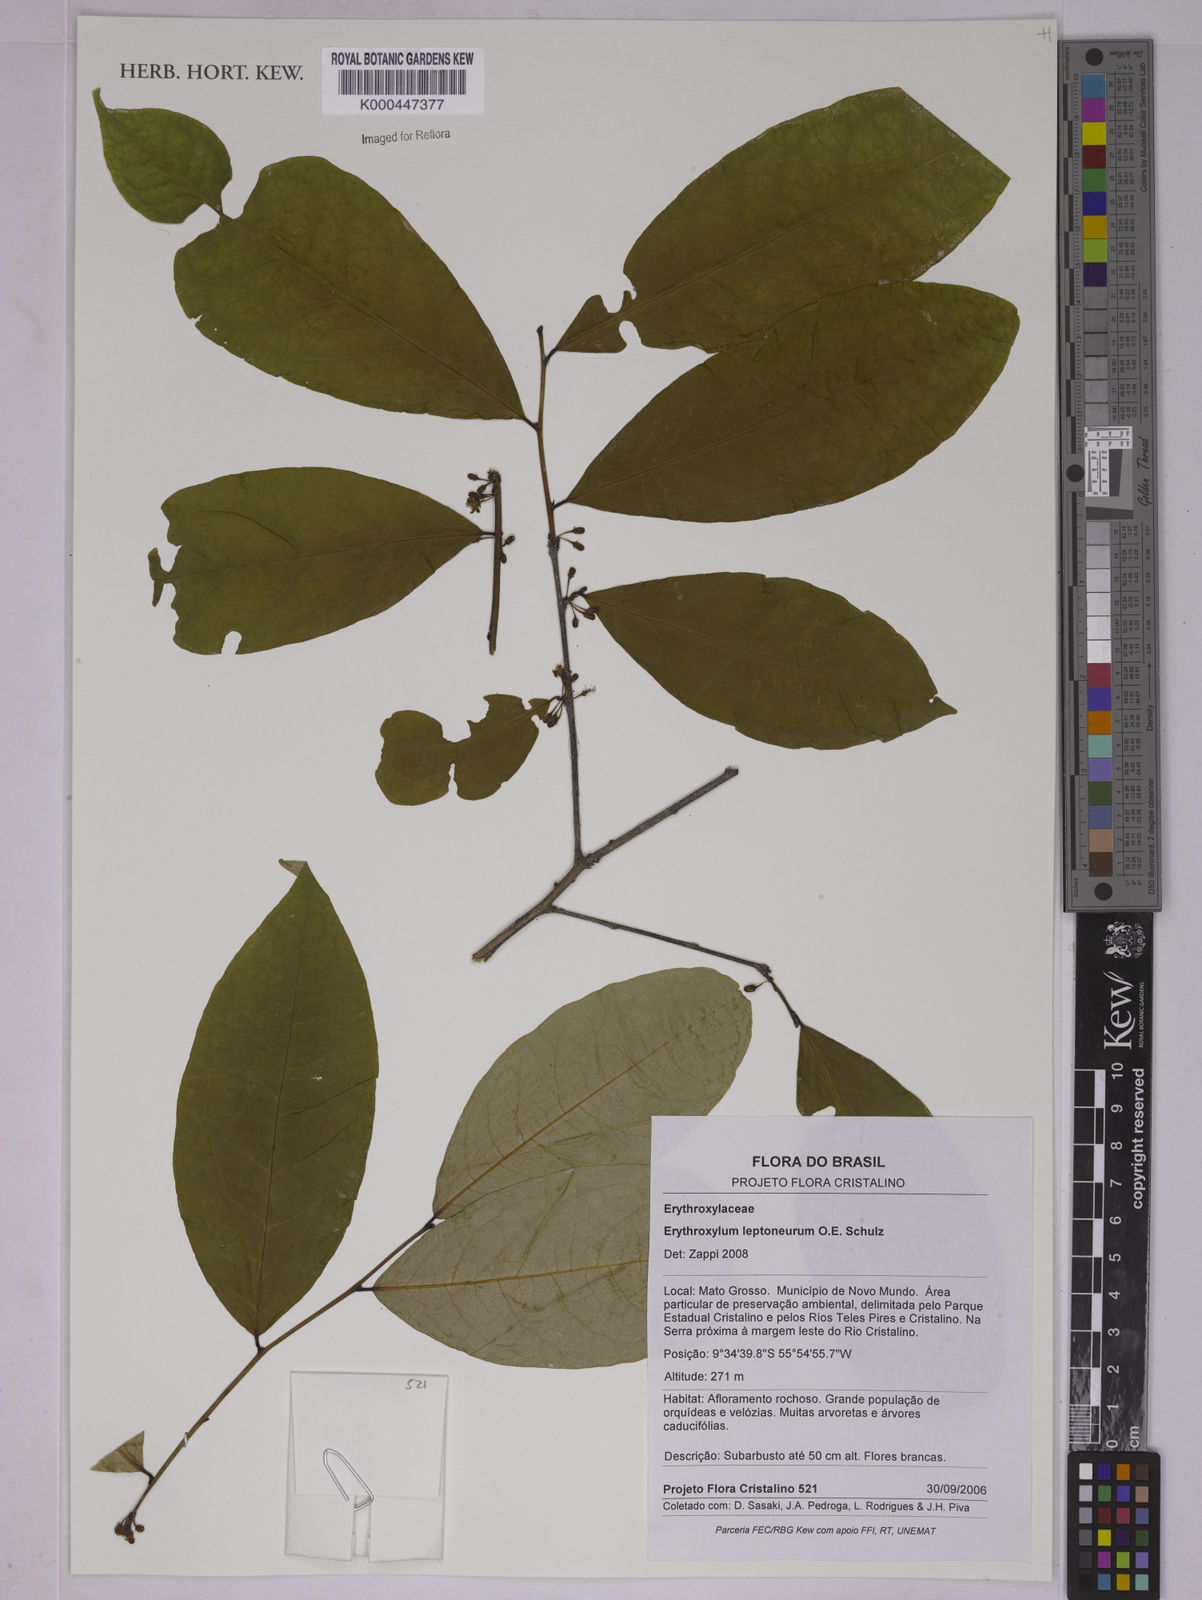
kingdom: Plantae
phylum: Tracheophyta
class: Magnoliopsida
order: Malpighiales
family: Erythroxylaceae
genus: Erythroxylum
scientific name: Erythroxylum leptoneurum
